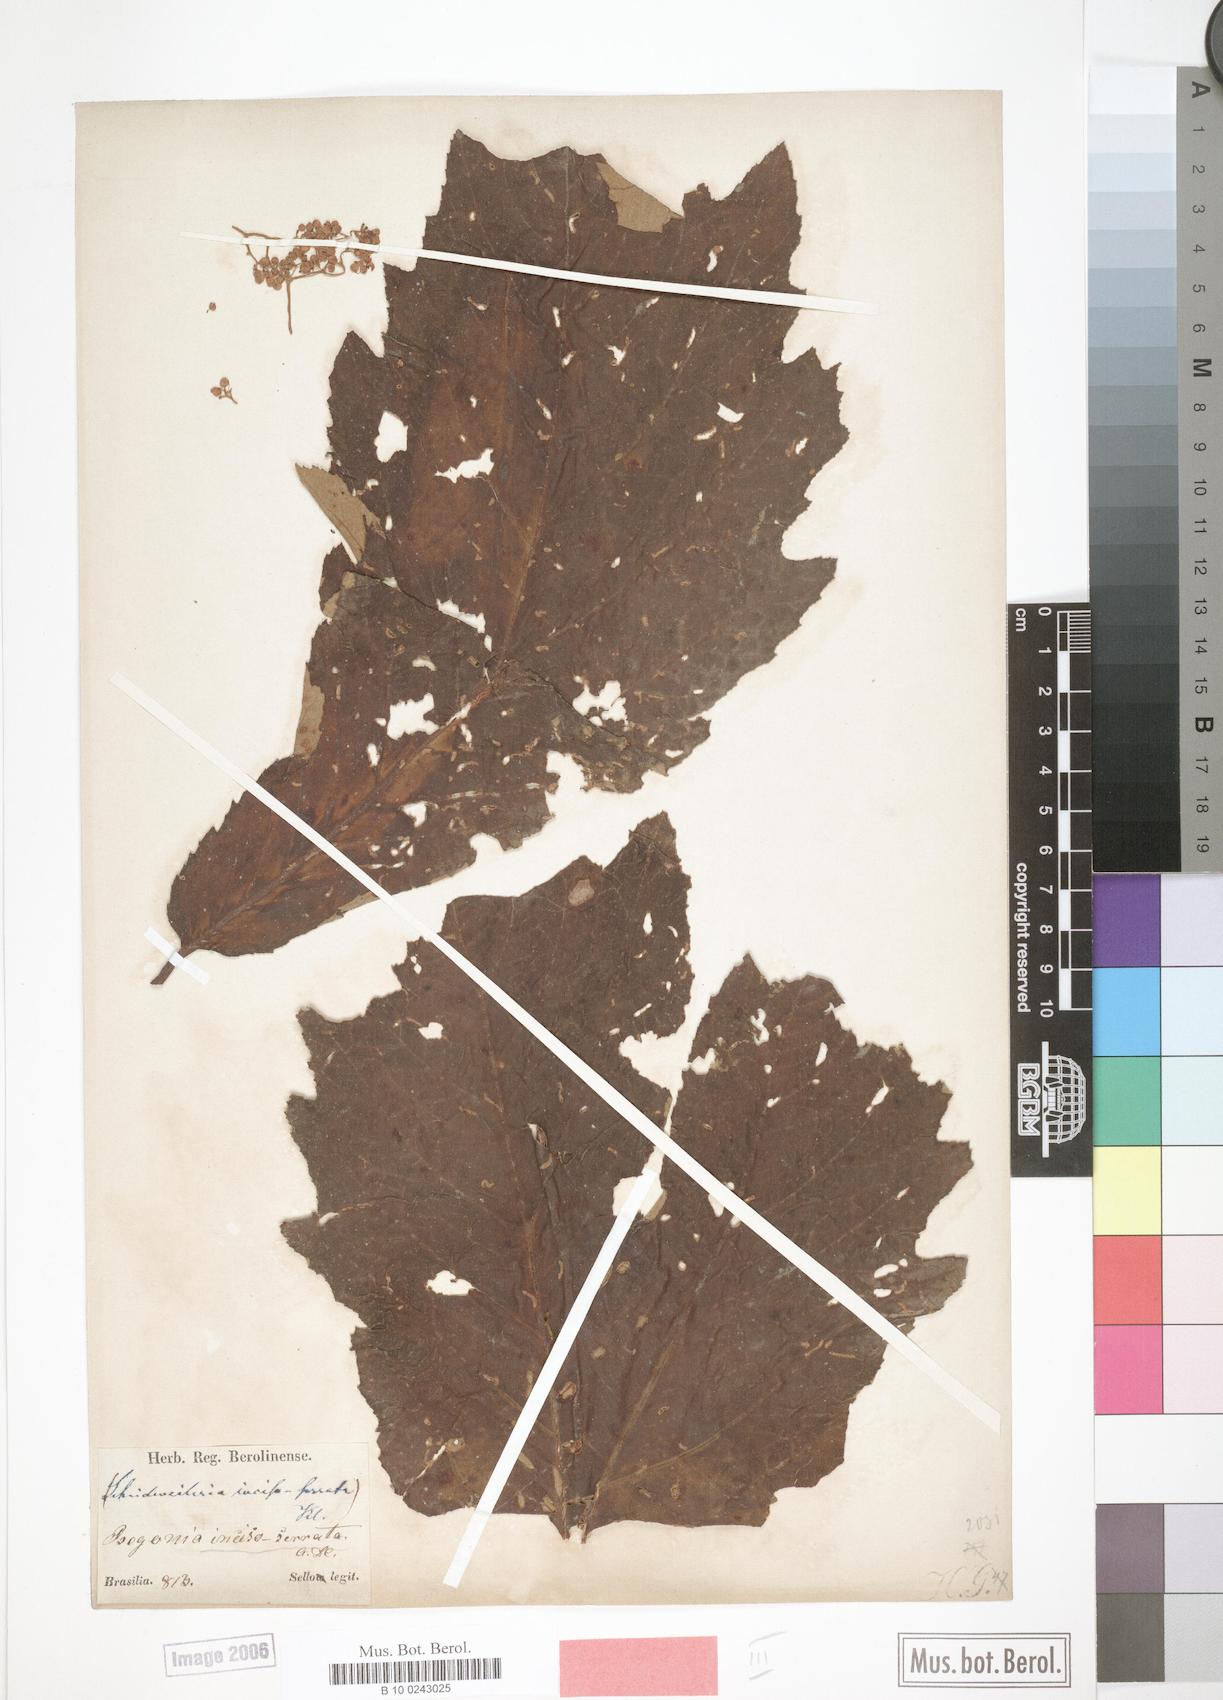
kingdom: Plantae
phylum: Tracheophyta
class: Magnoliopsida
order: Cucurbitales
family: Begoniaceae
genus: Begonia
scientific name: Begonia incisoserrata
